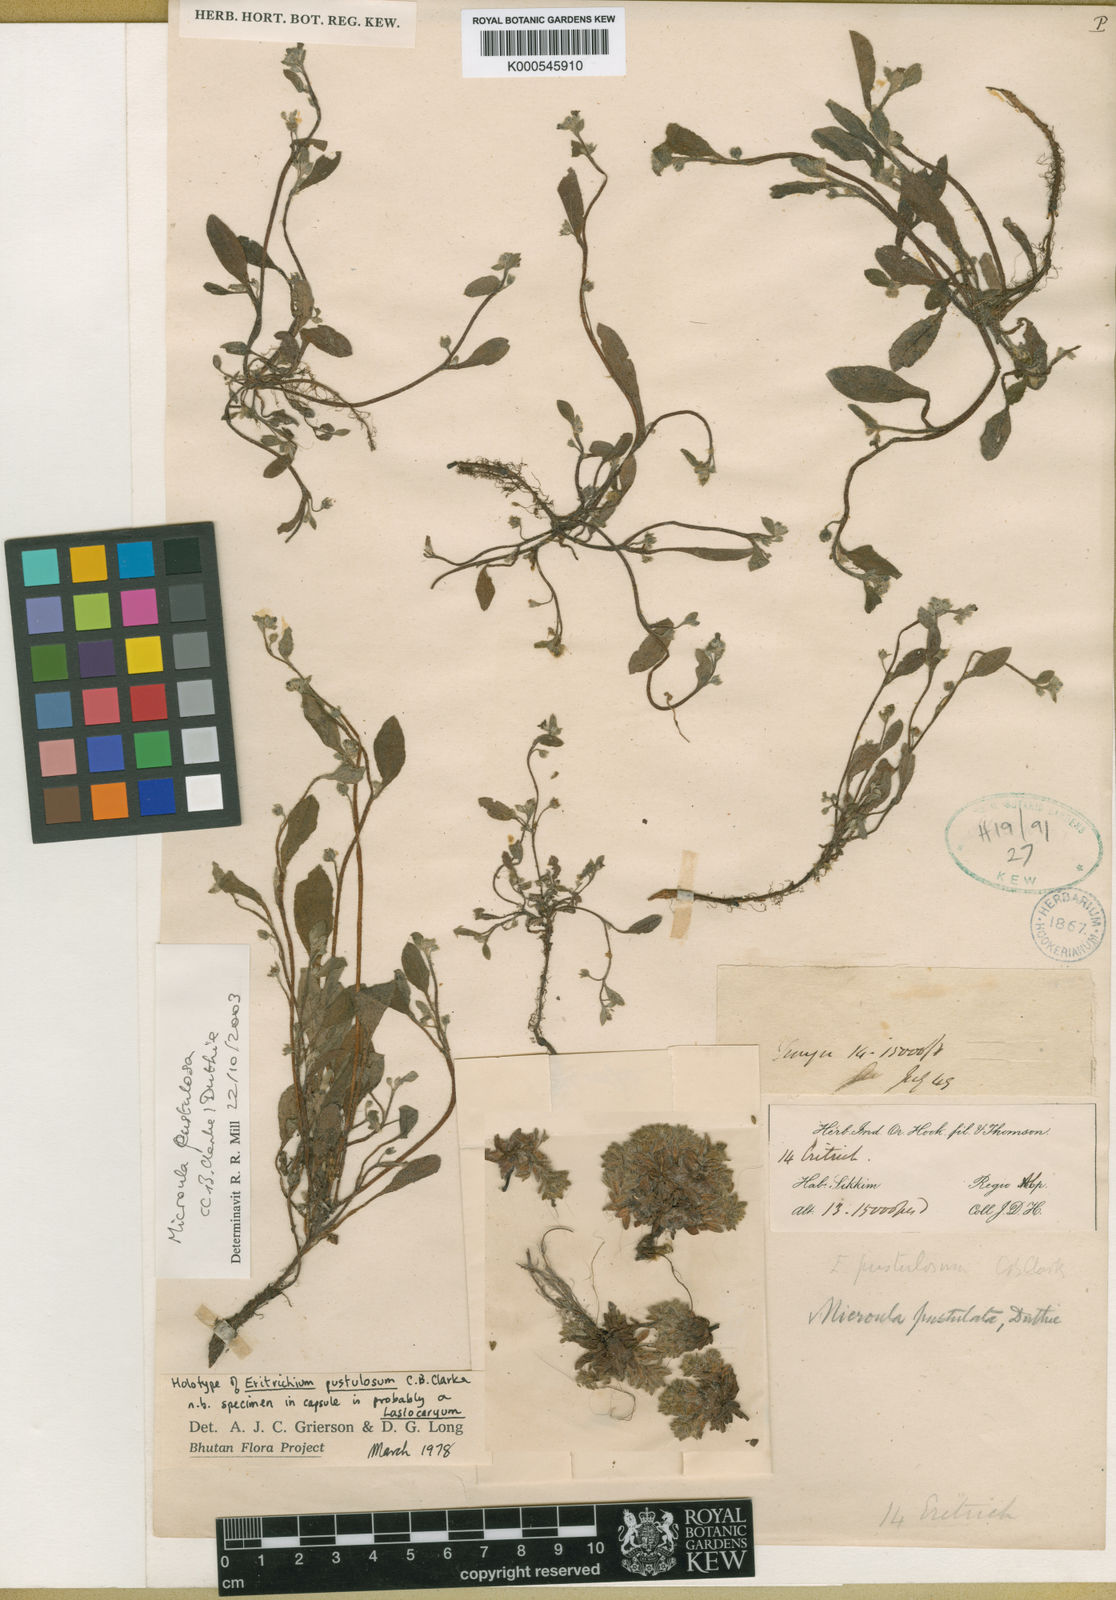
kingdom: Plantae
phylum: Tracheophyta
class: Magnoliopsida
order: Boraginales
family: Boraginaceae
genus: Microula
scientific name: Microula pustulosa
